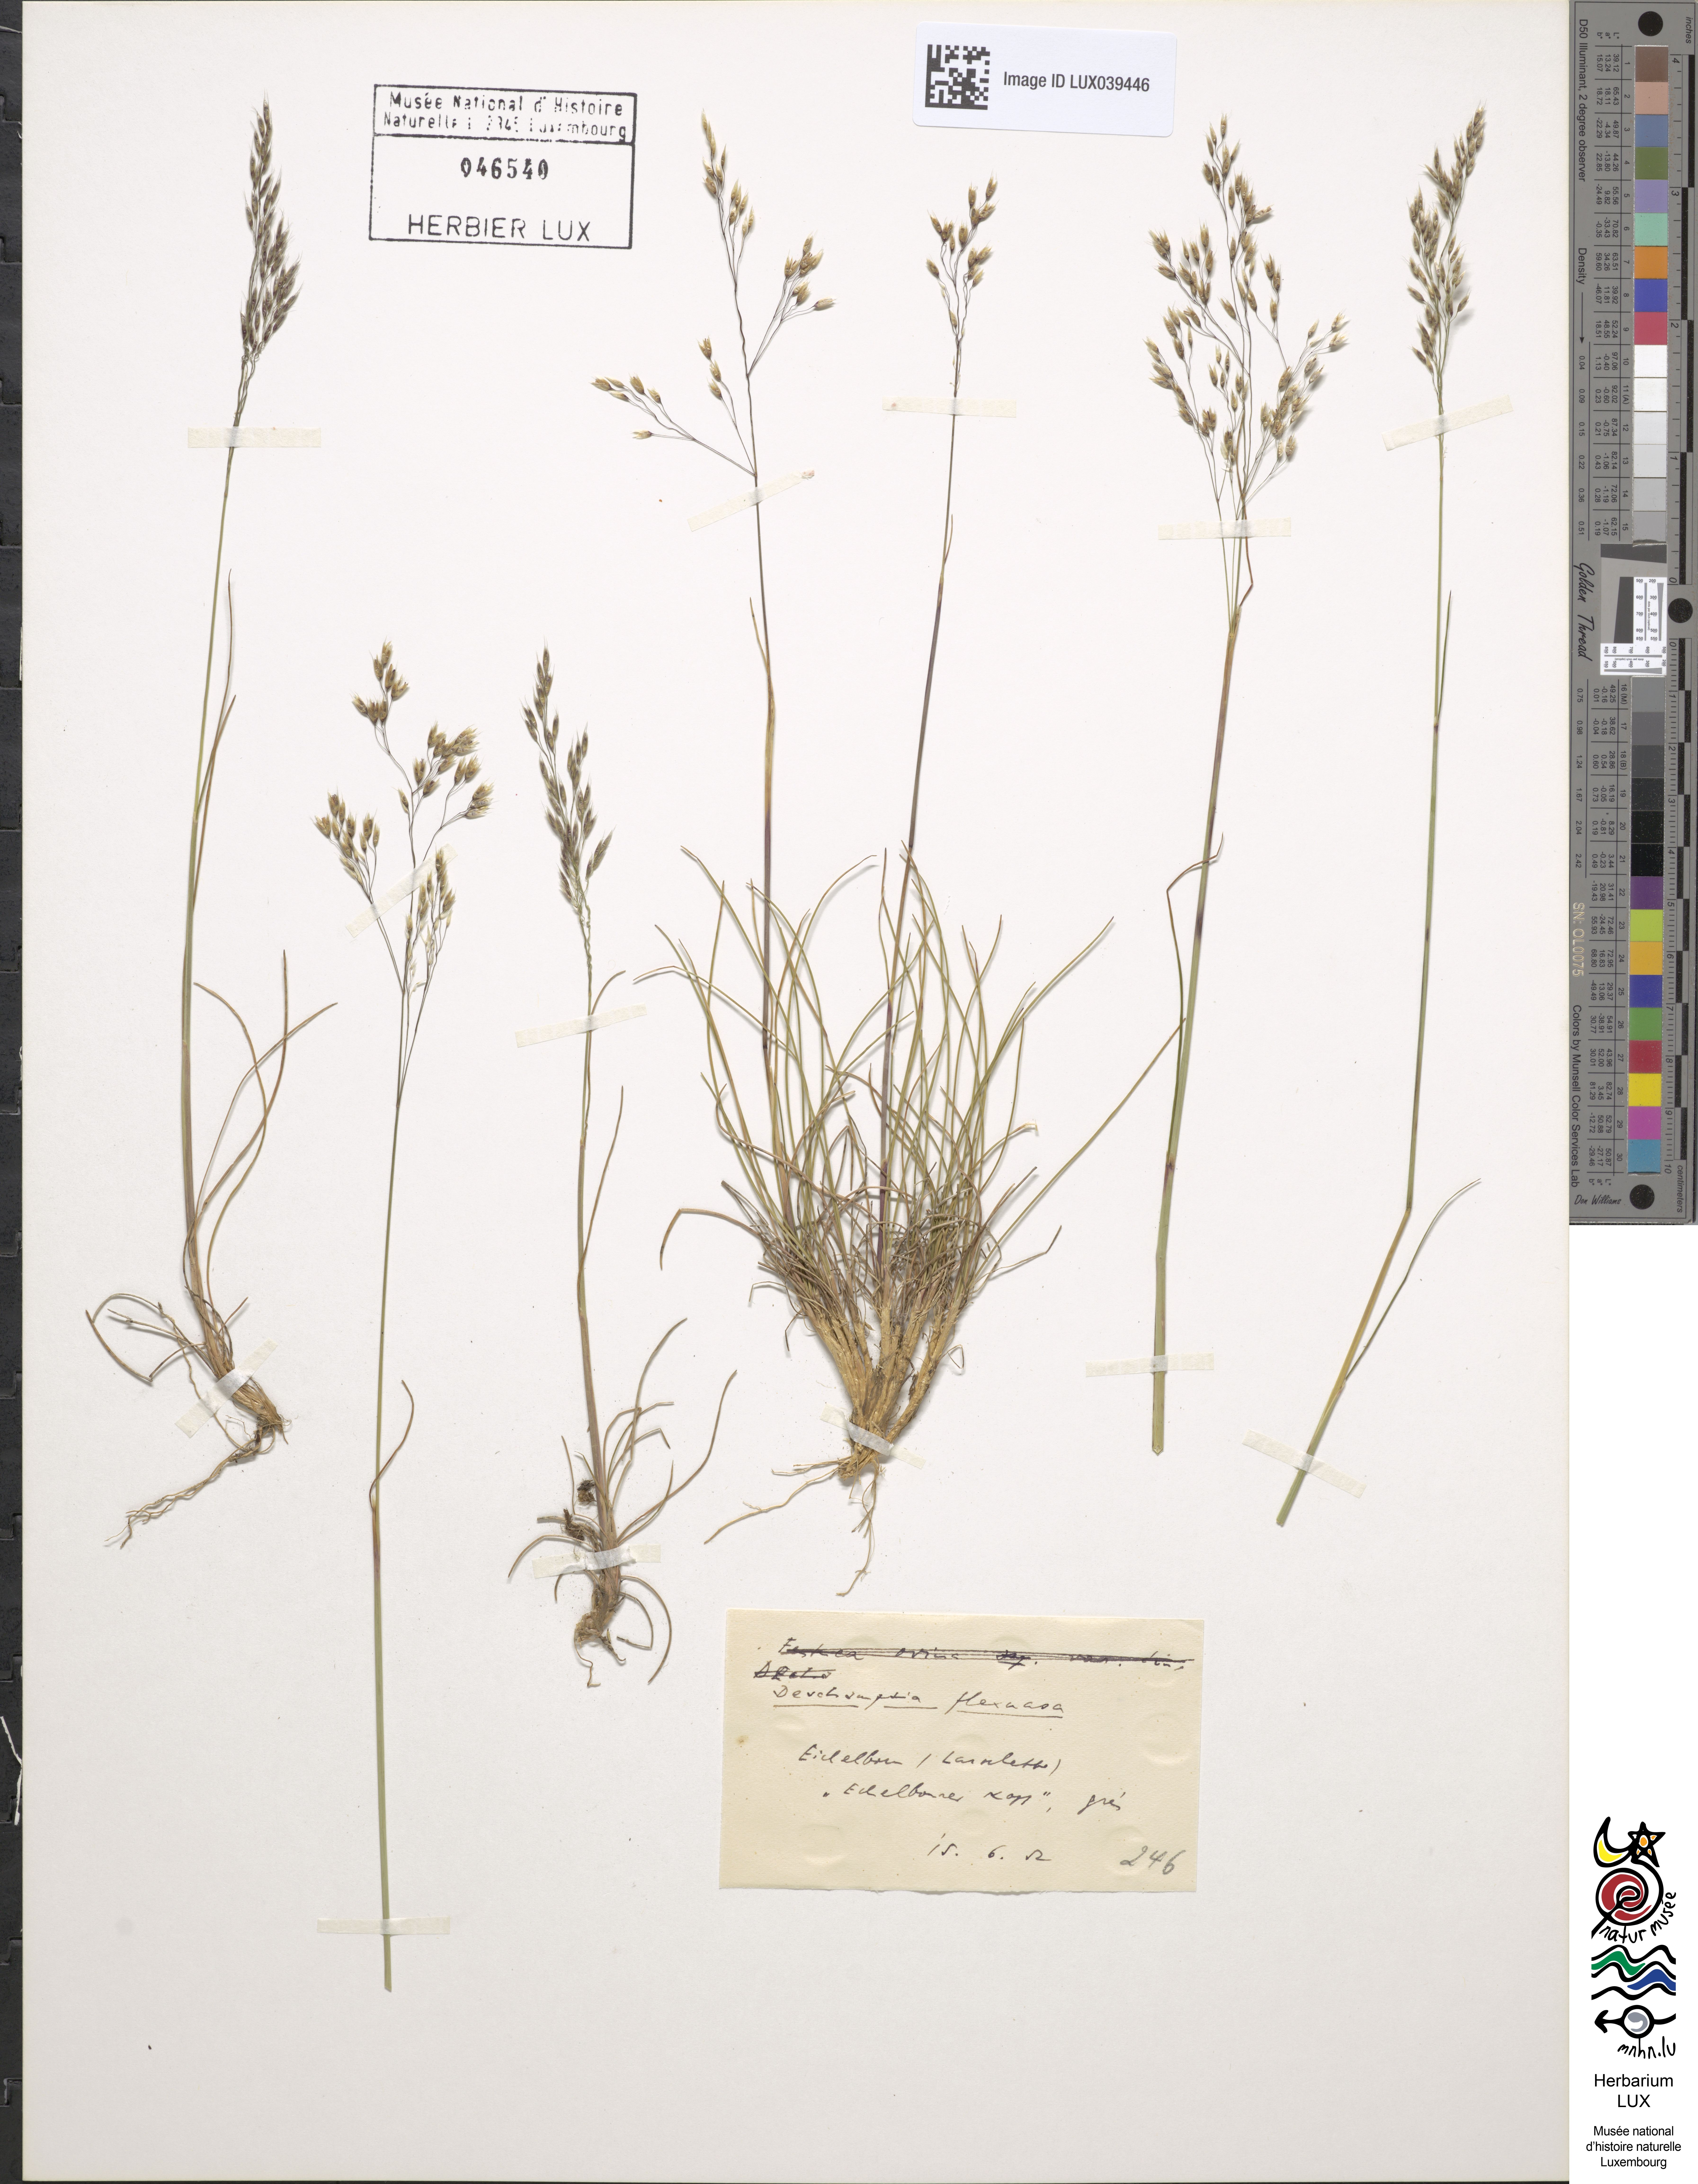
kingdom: Plantae
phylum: Tracheophyta
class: Liliopsida
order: Poales
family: Poaceae
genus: Avenella
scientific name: Avenella flexuosa
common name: Wavy hairgrass
